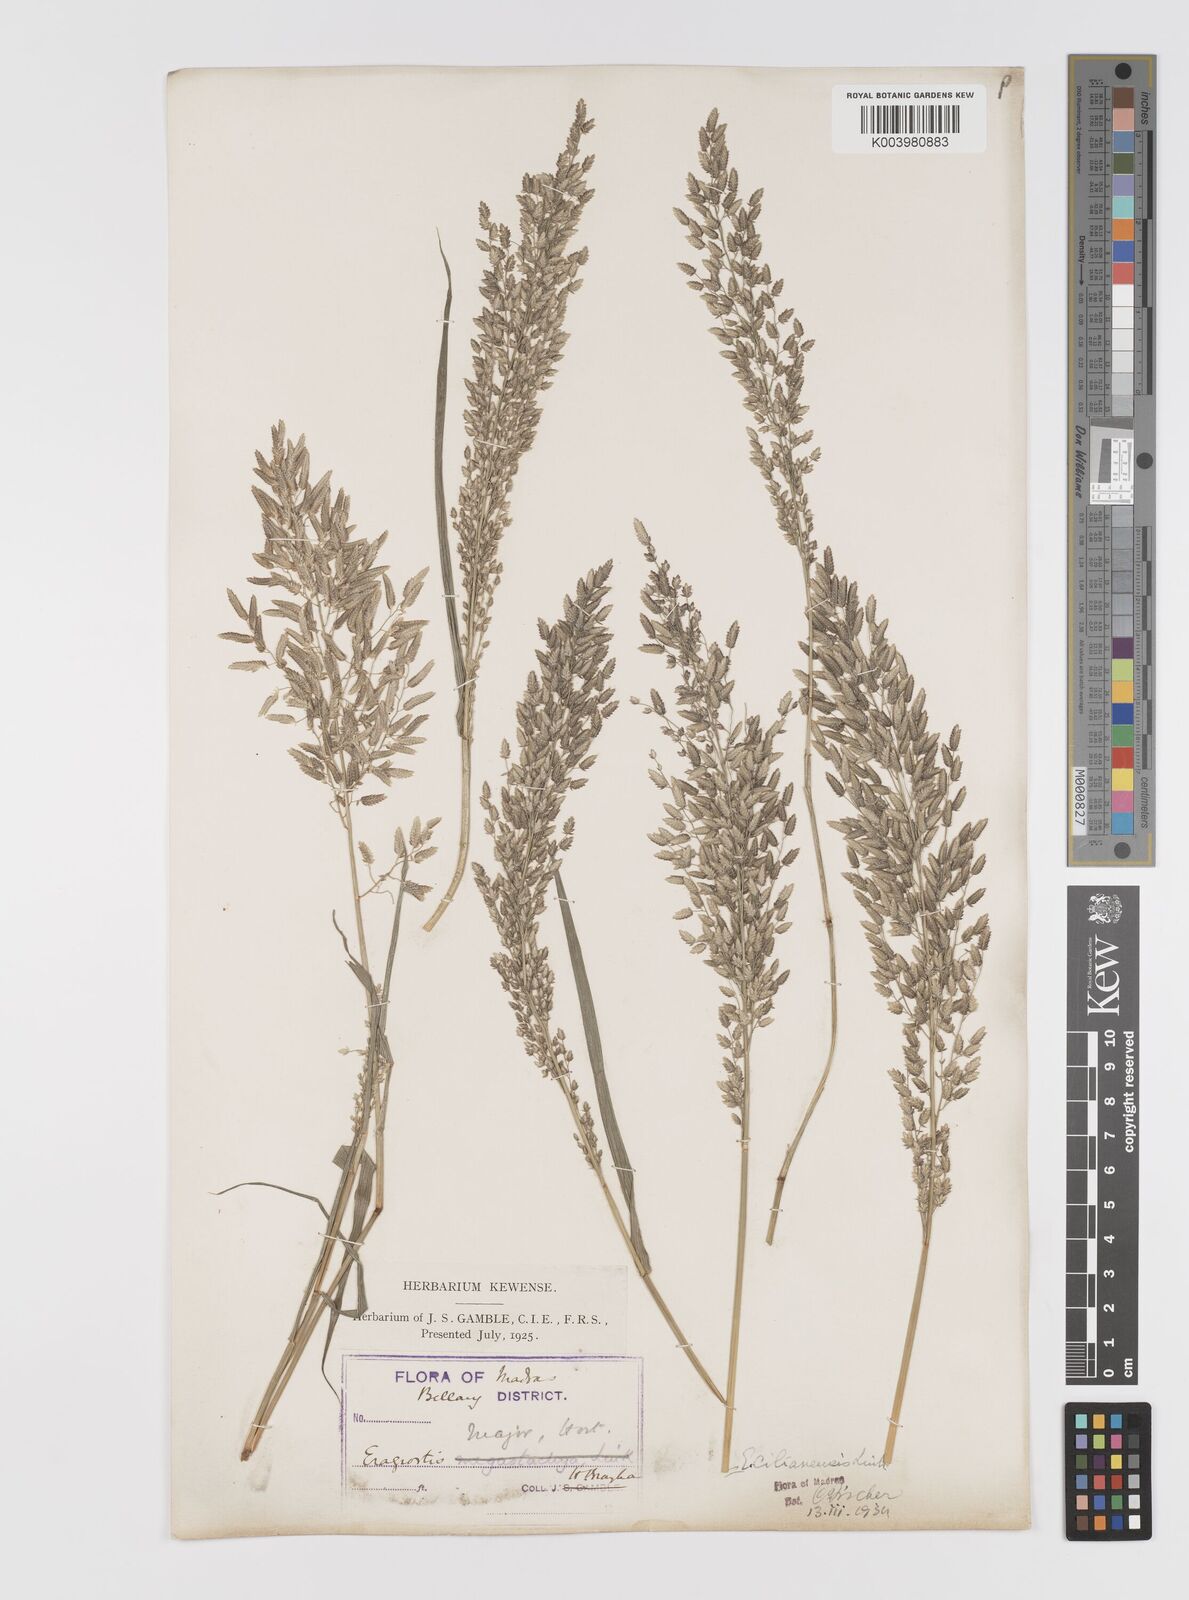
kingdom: Plantae
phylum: Tracheophyta
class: Liliopsida
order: Poales
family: Poaceae
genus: Eragrostis
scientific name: Eragrostis cilianensis
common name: Stinkgrass
